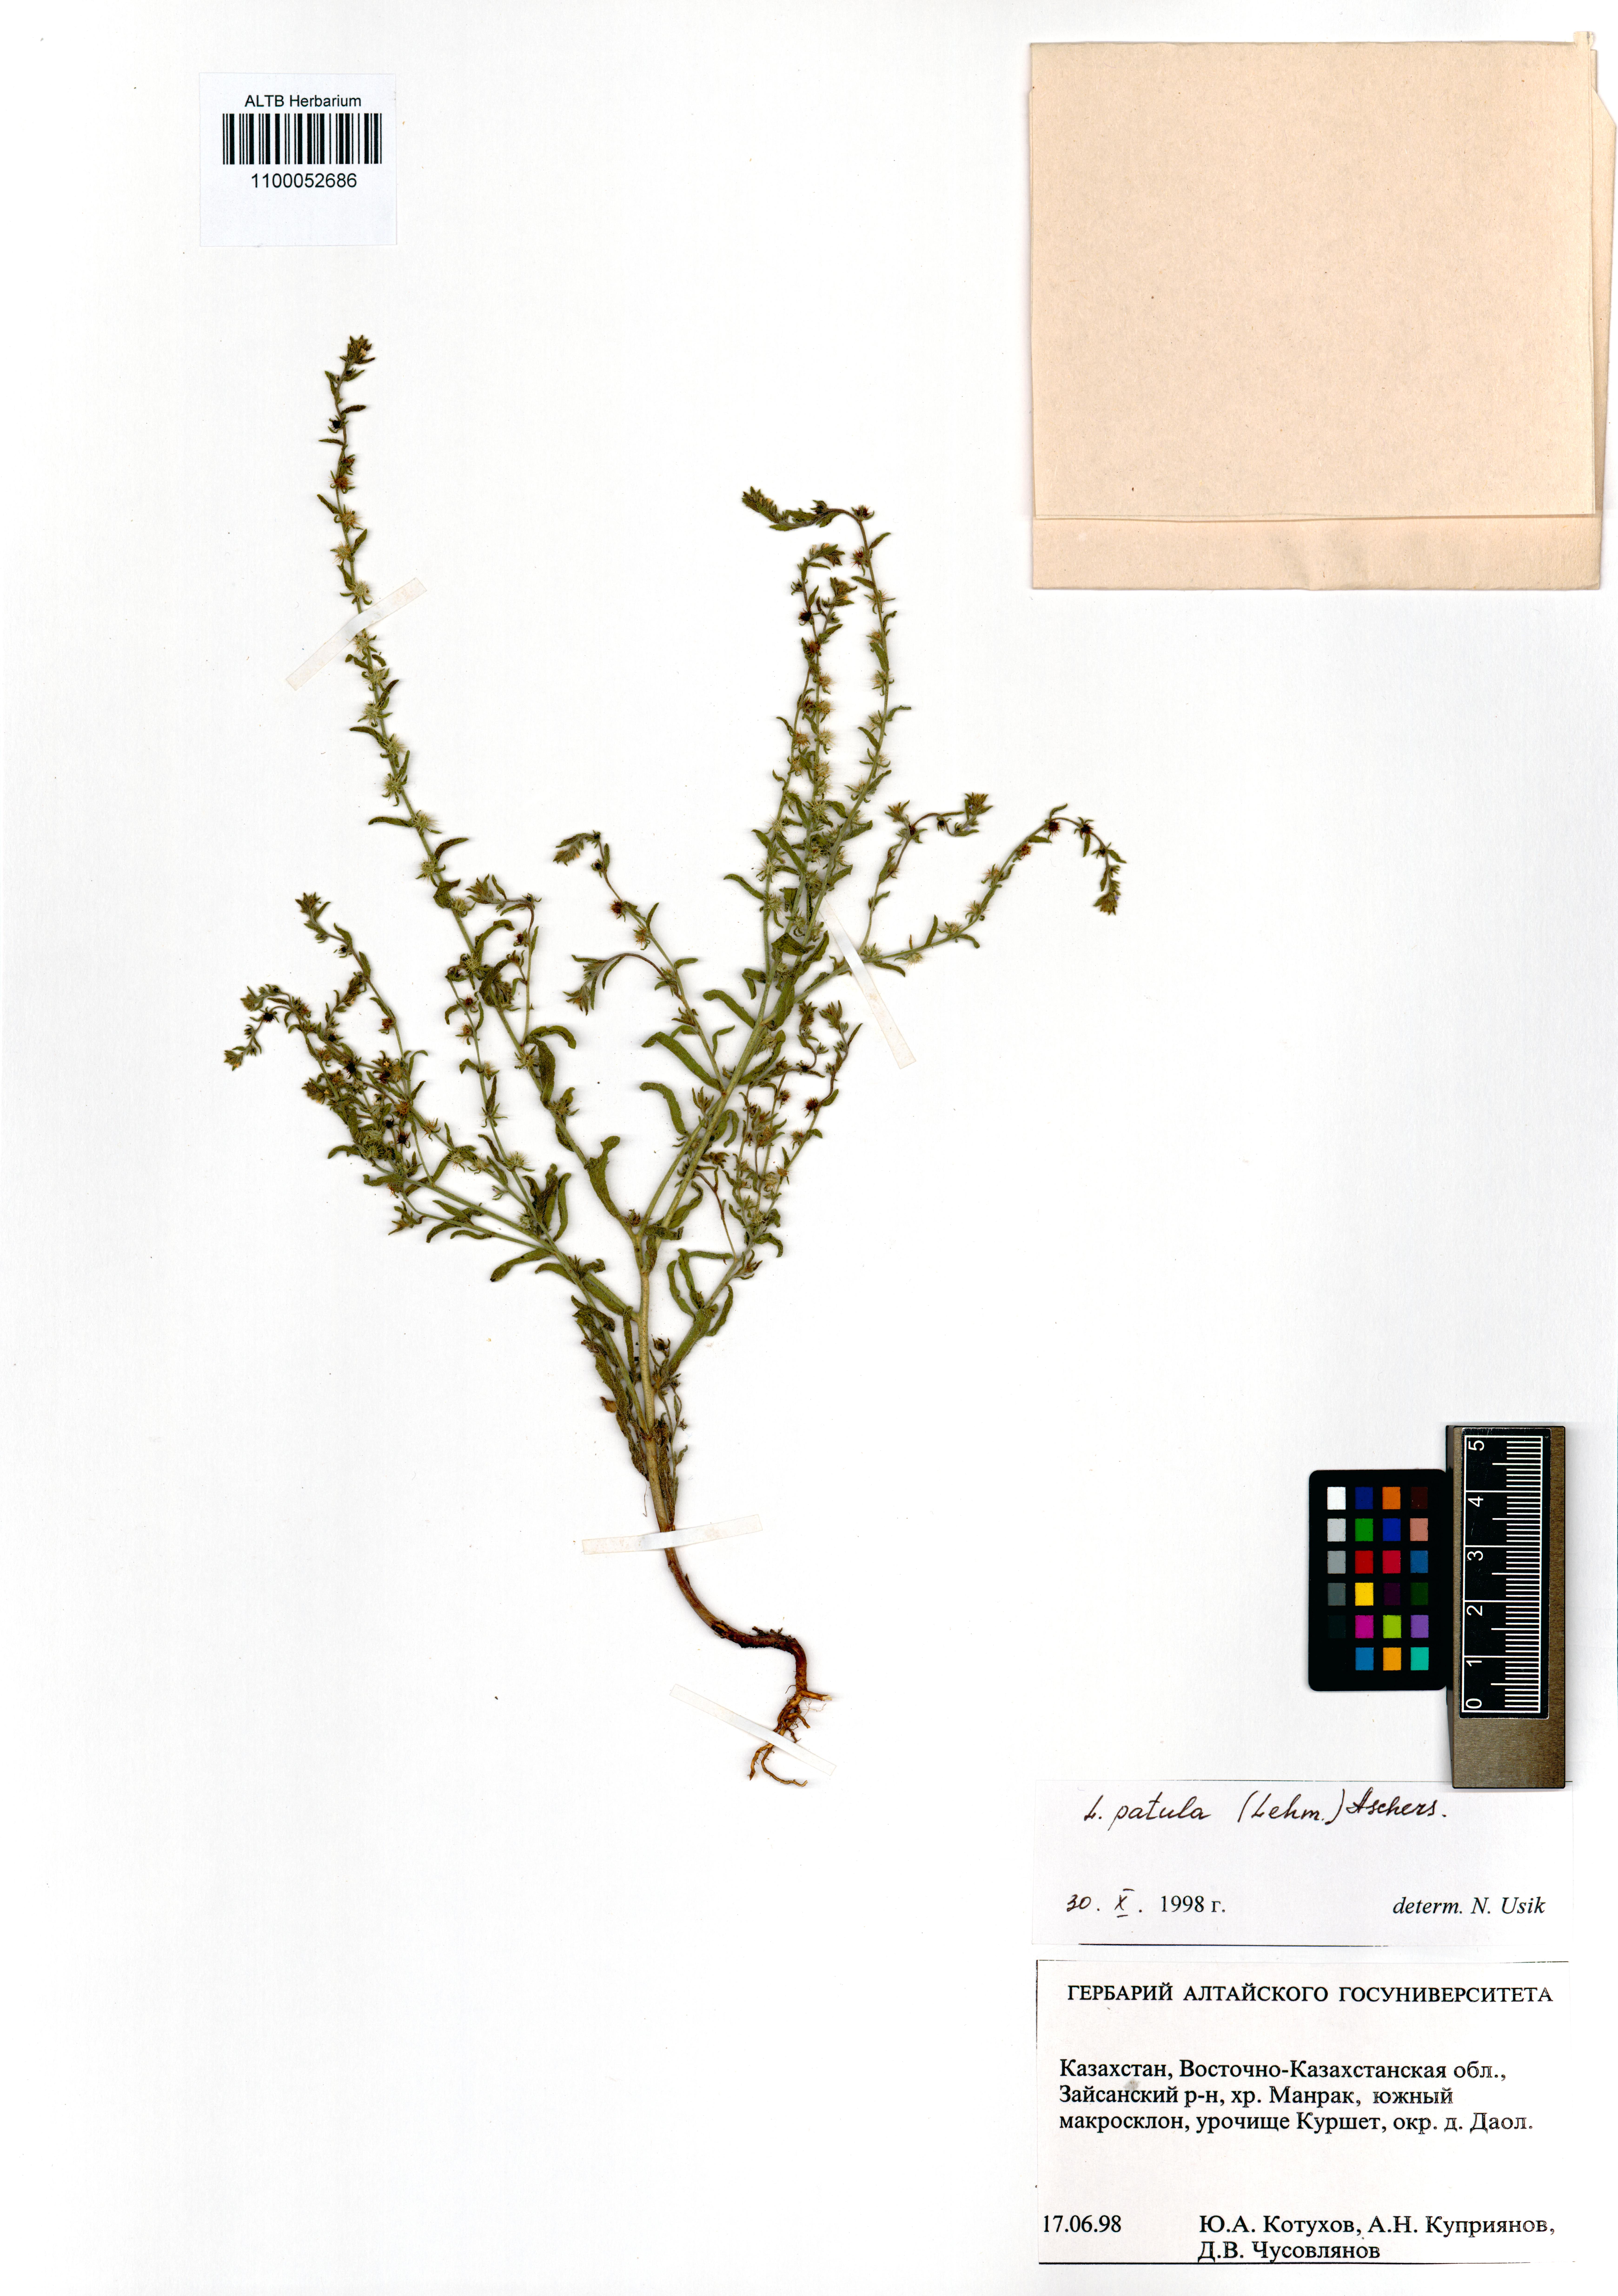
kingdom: Plantae
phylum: Tracheophyta
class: Magnoliopsida
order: Boraginales
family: Boraginaceae
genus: Lappula
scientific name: Lappula patula
